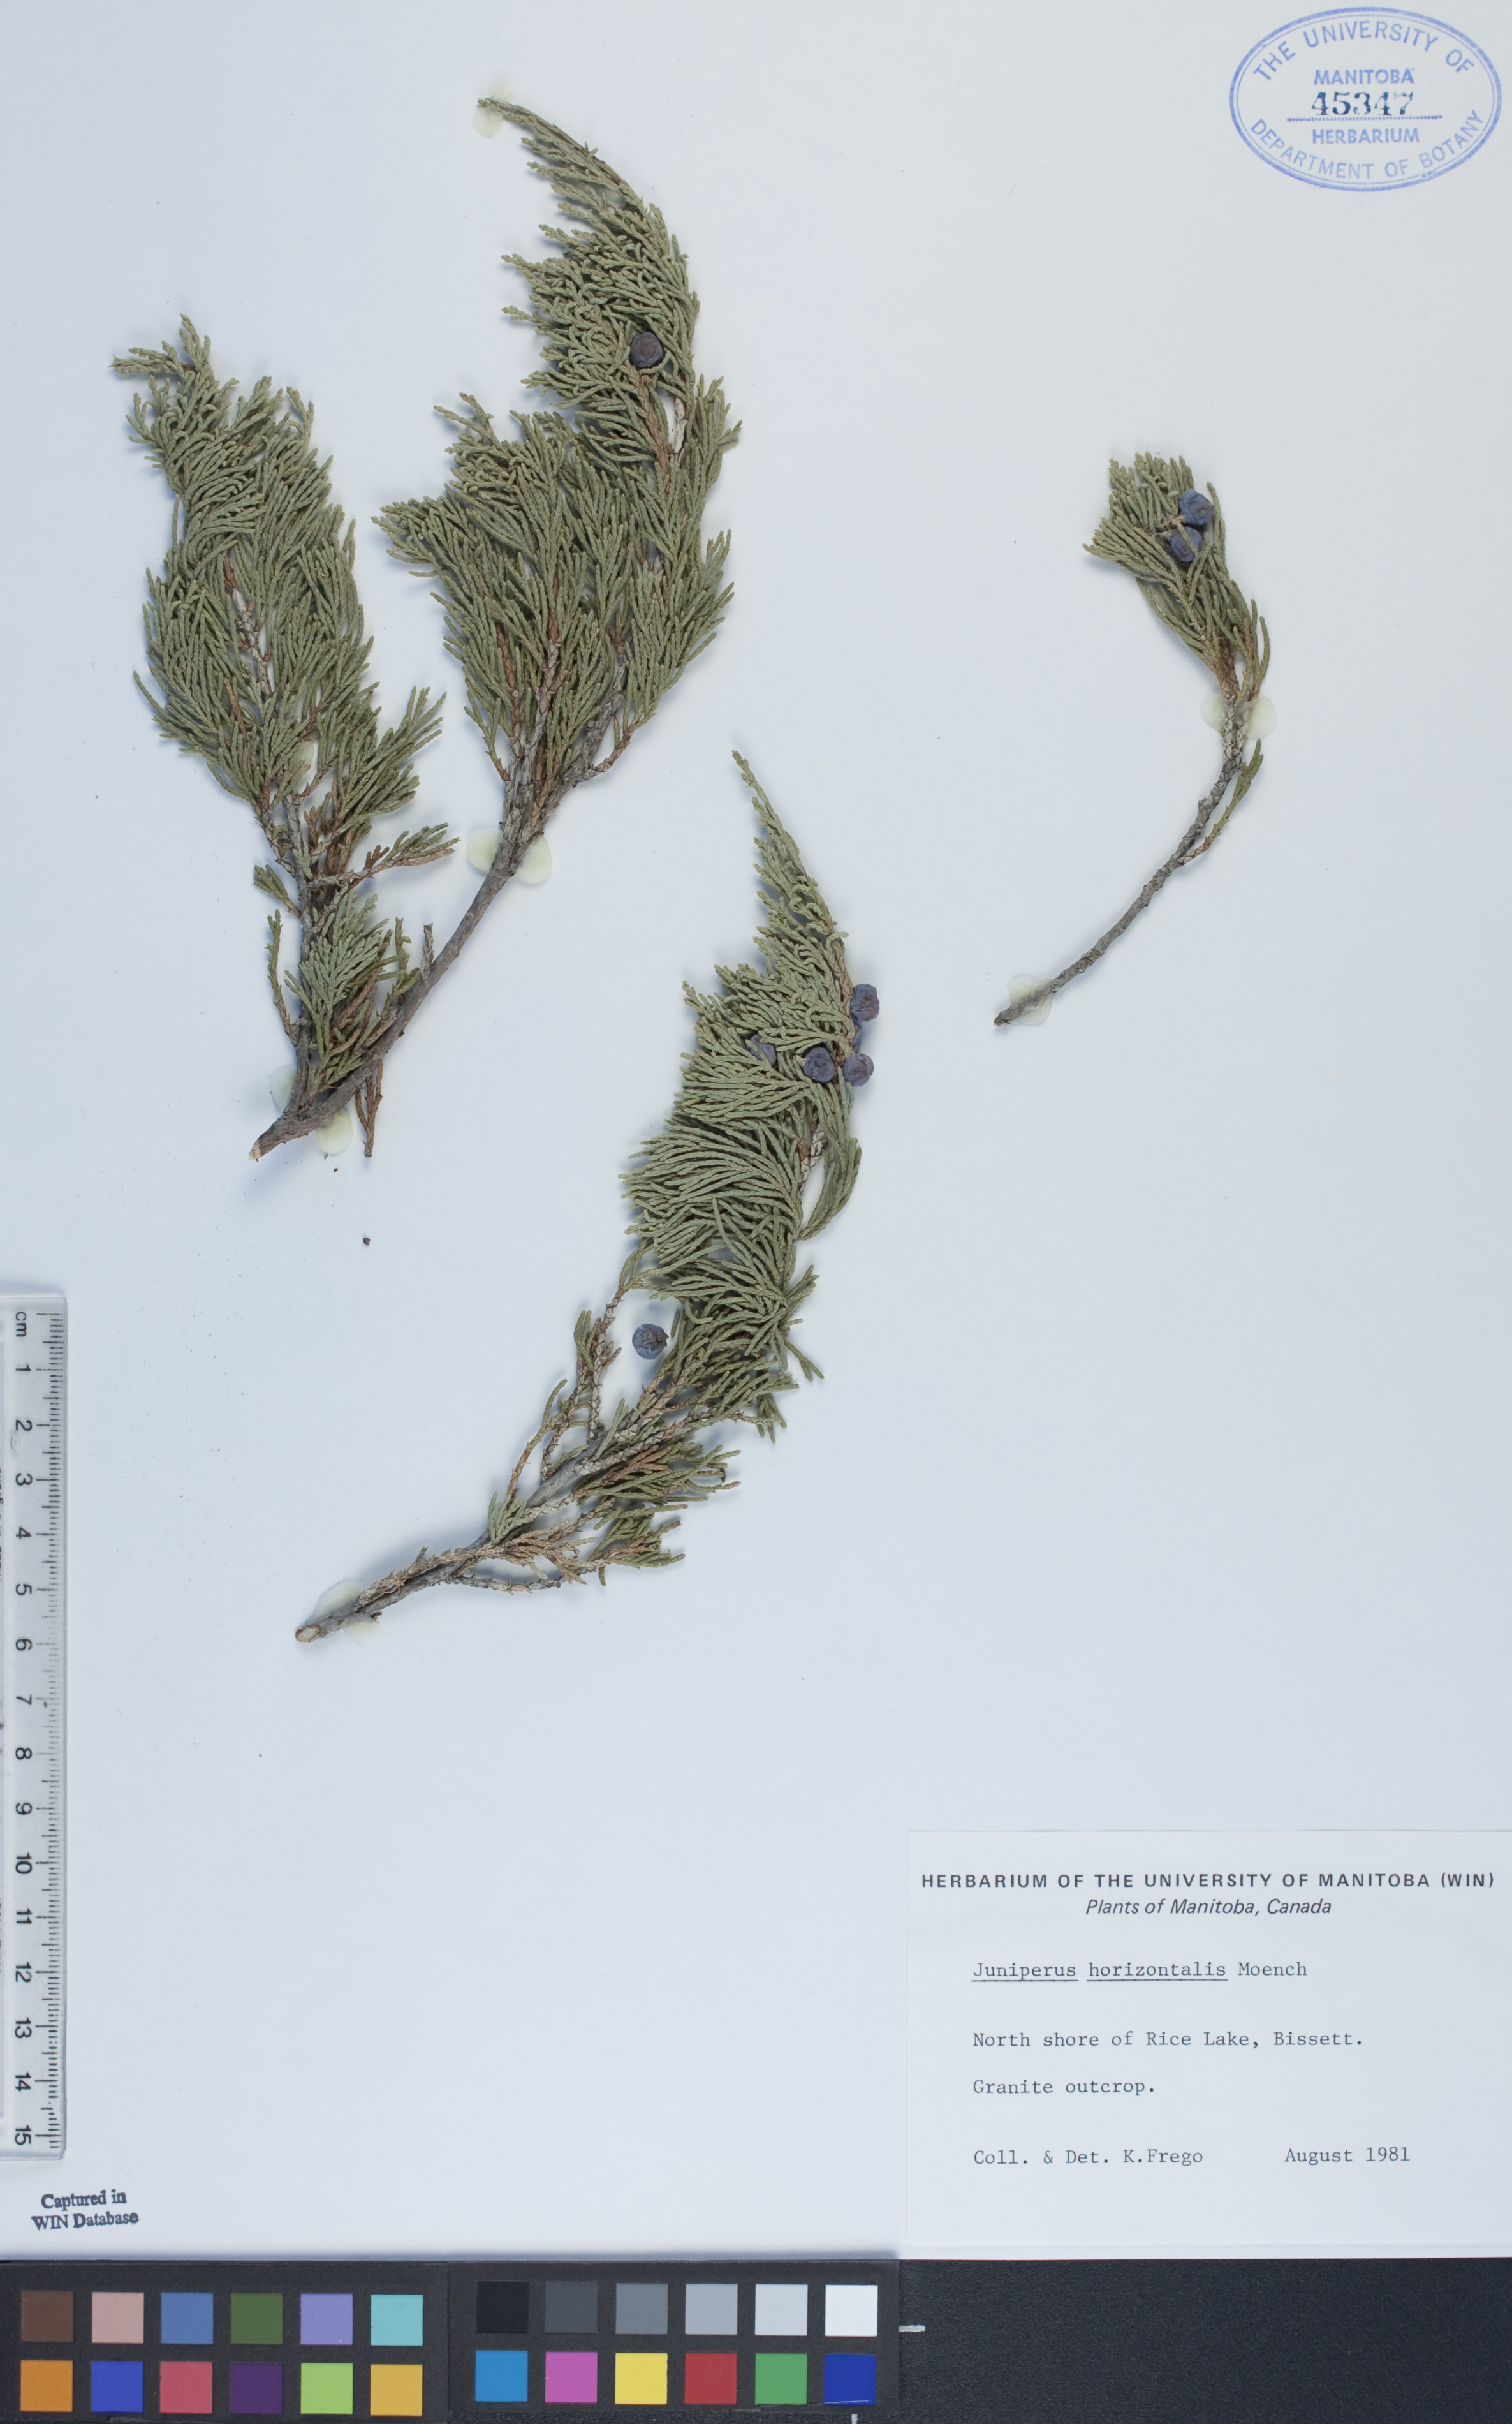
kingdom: Plantae
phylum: Tracheophyta
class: Pinopsida
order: Pinales
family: Cupressaceae
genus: Juniperus
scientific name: Juniperus horizontalis
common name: Creeping juniper
